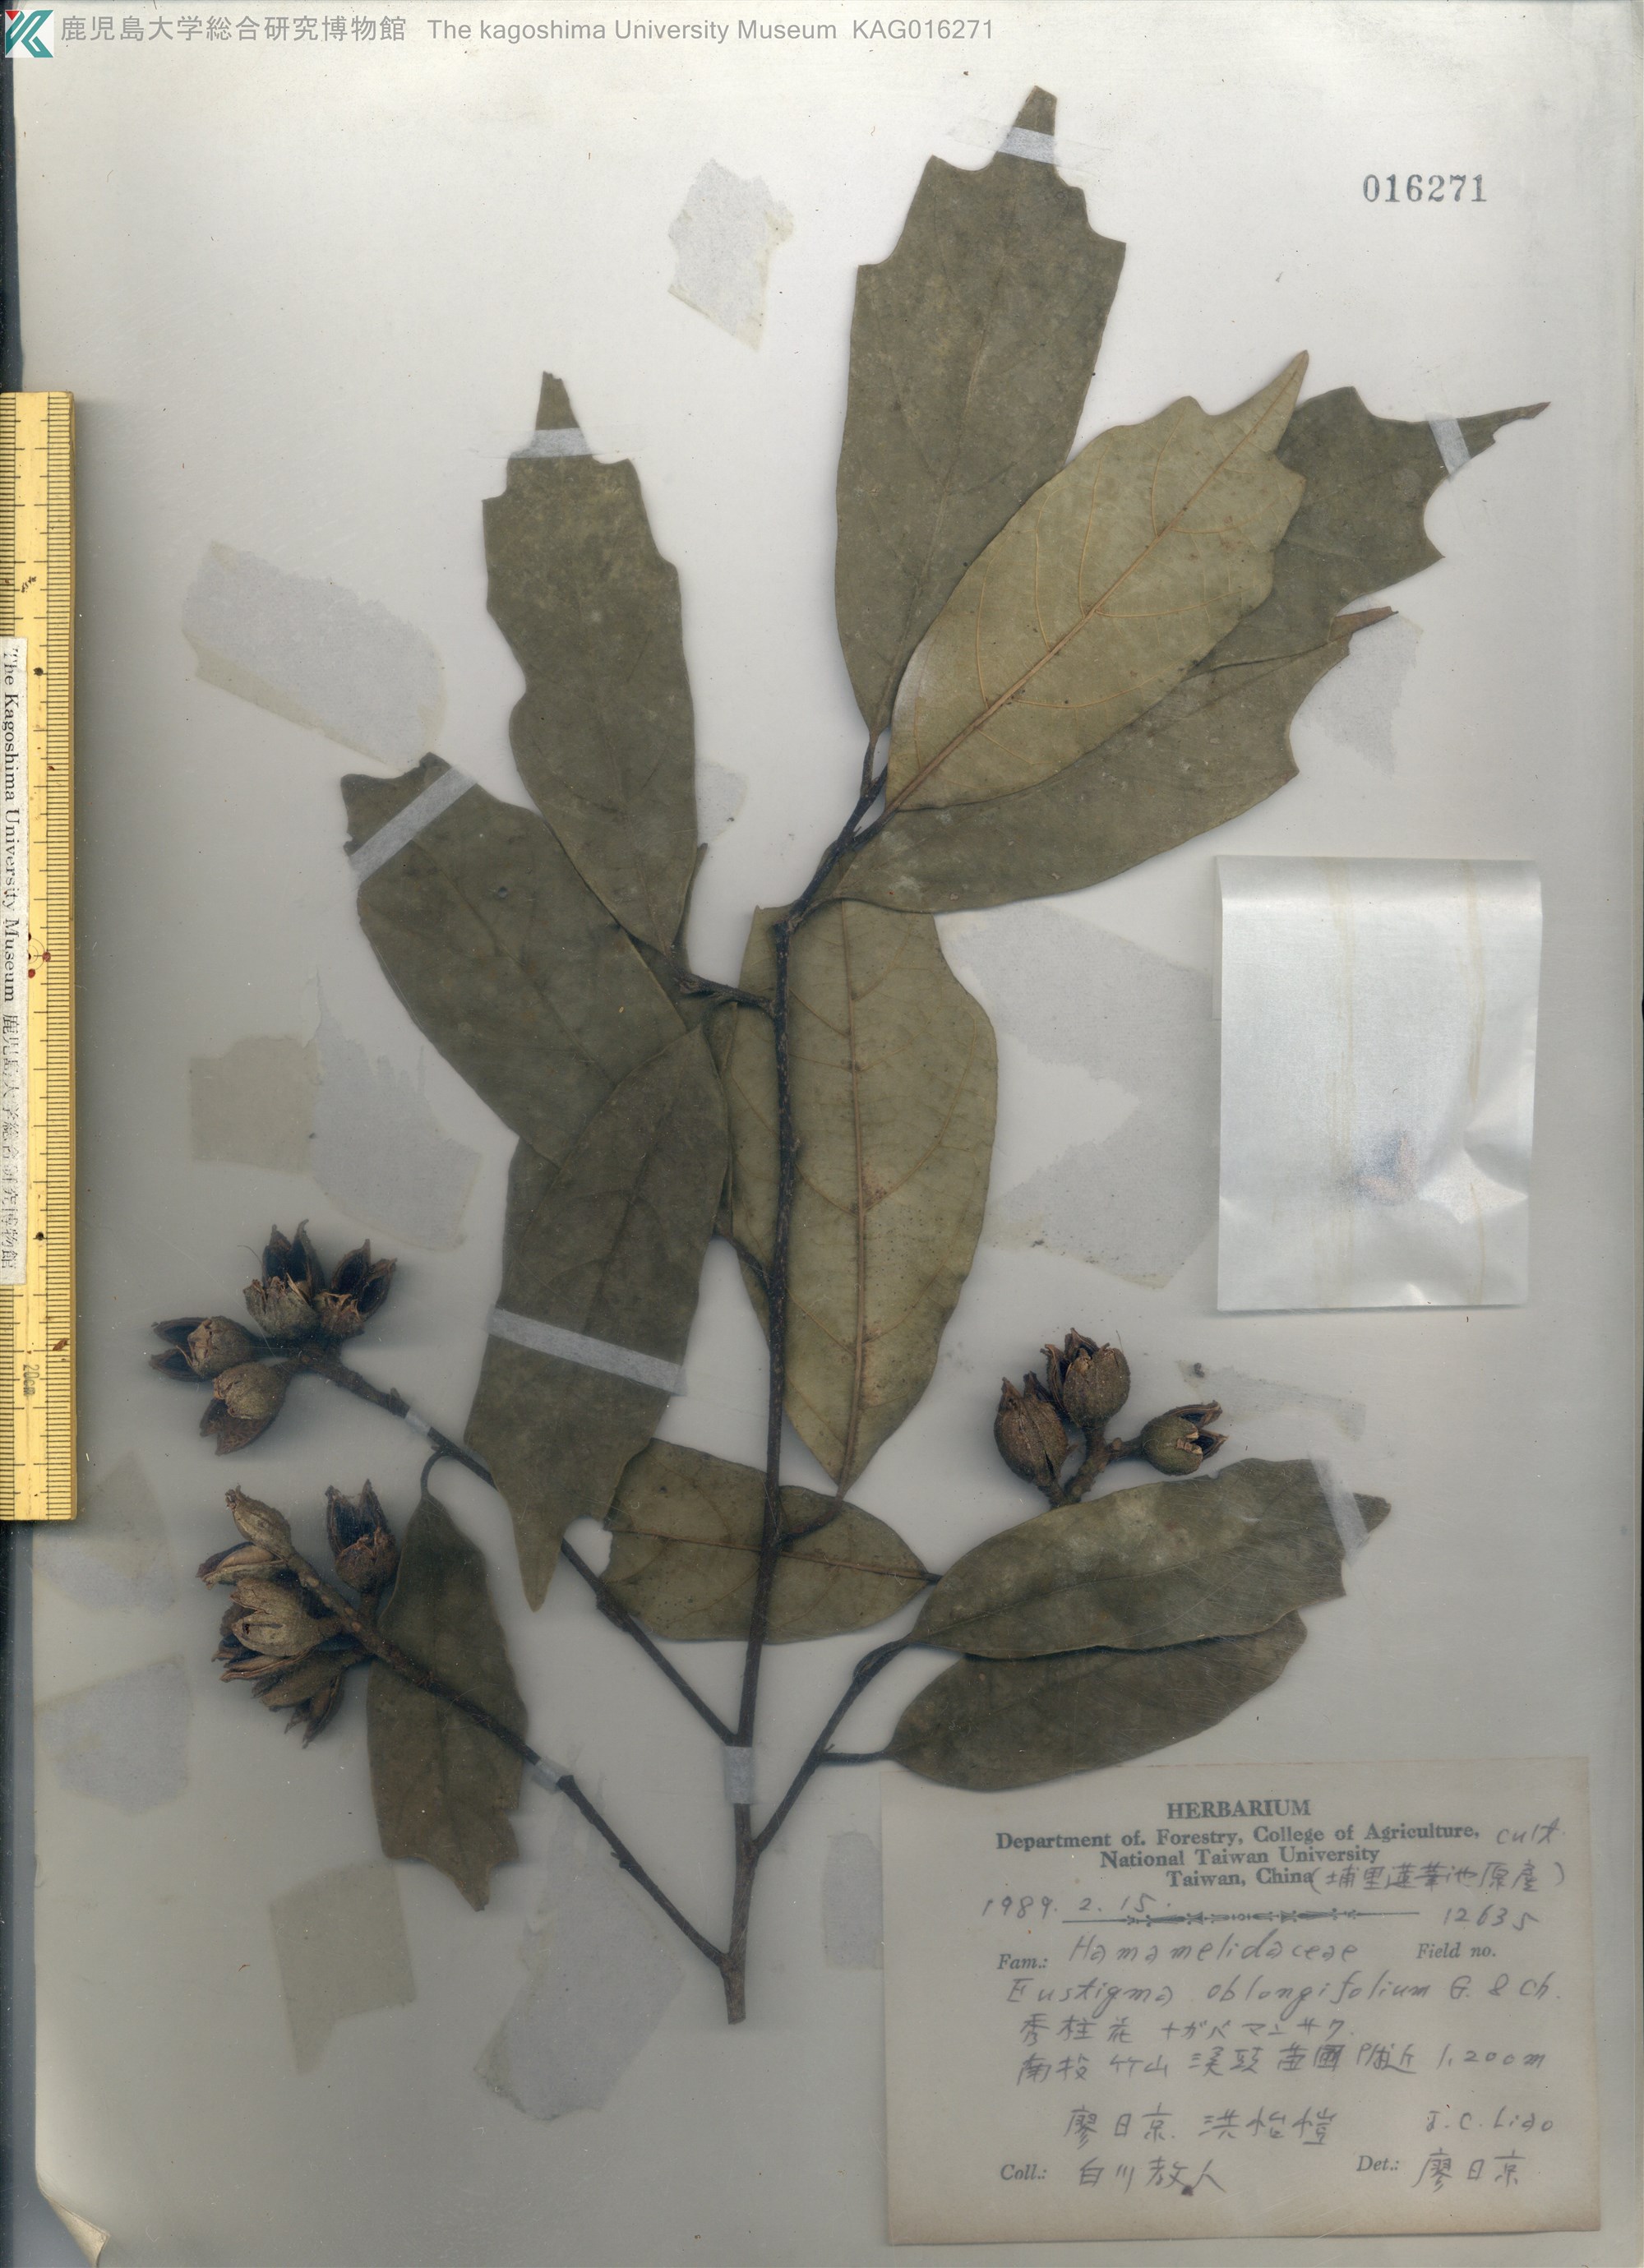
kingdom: Plantae
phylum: Tracheophyta
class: Magnoliopsida
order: Saxifragales
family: Hamamelidaceae
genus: Eustigma
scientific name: Eustigma oblongifolium
